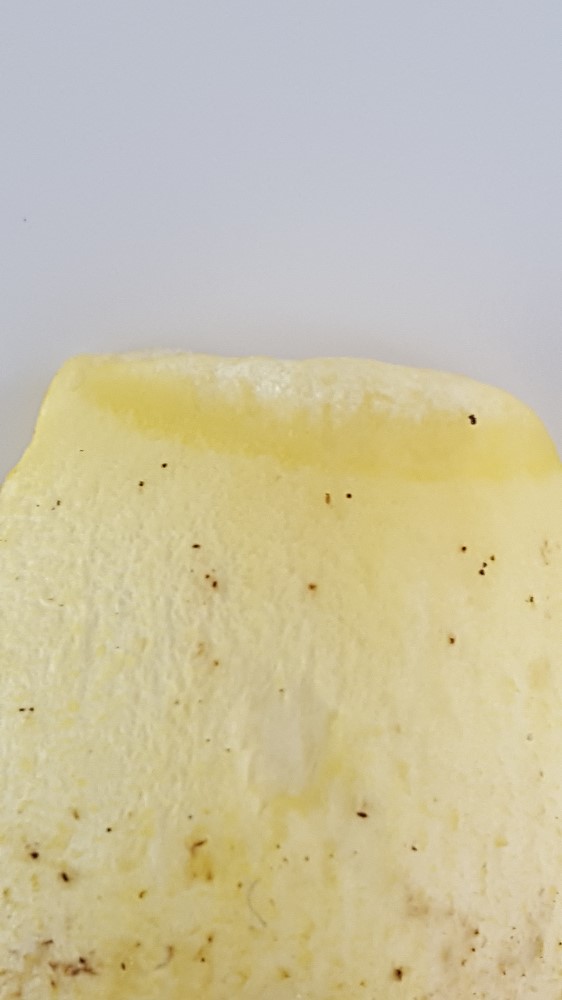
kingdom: Fungi
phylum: Basidiomycota
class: Agaricomycetes
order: Boletales
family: Boletaceae
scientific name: Boletaceae
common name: rørhatfamilien
